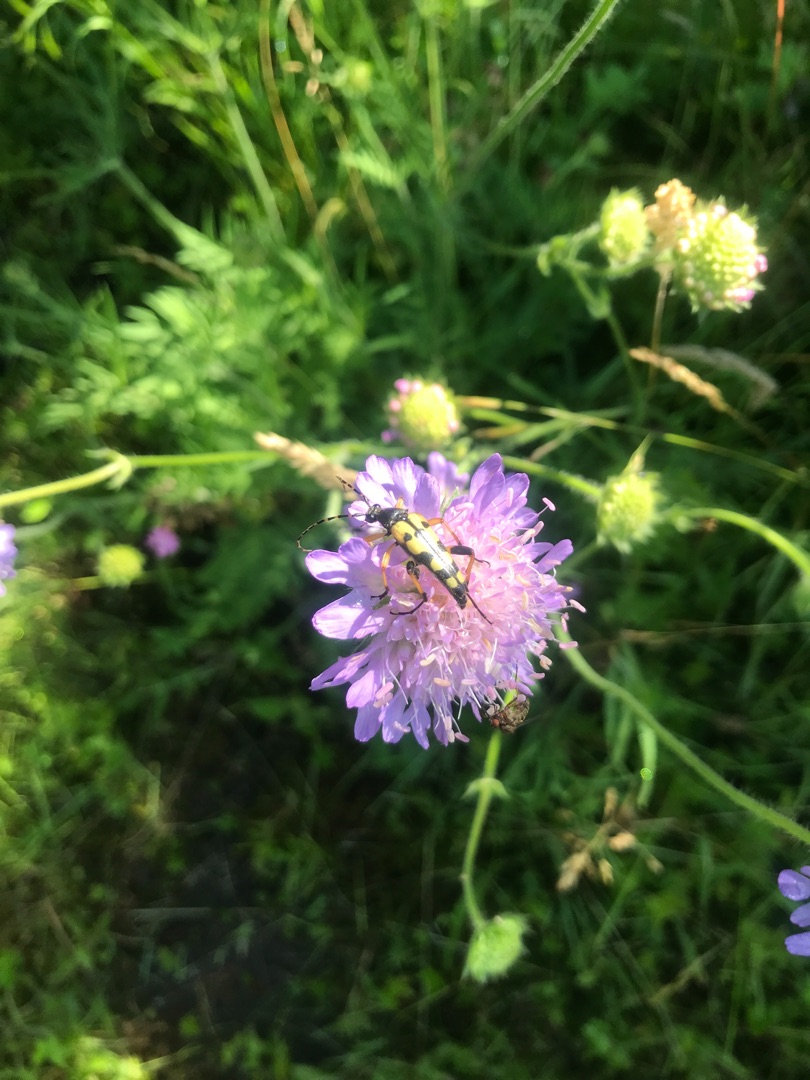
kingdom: Animalia
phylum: Arthropoda
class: Insecta
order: Coleoptera
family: Cerambycidae
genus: Rutpela
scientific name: Rutpela maculata
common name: Sydlig blomsterbuk
